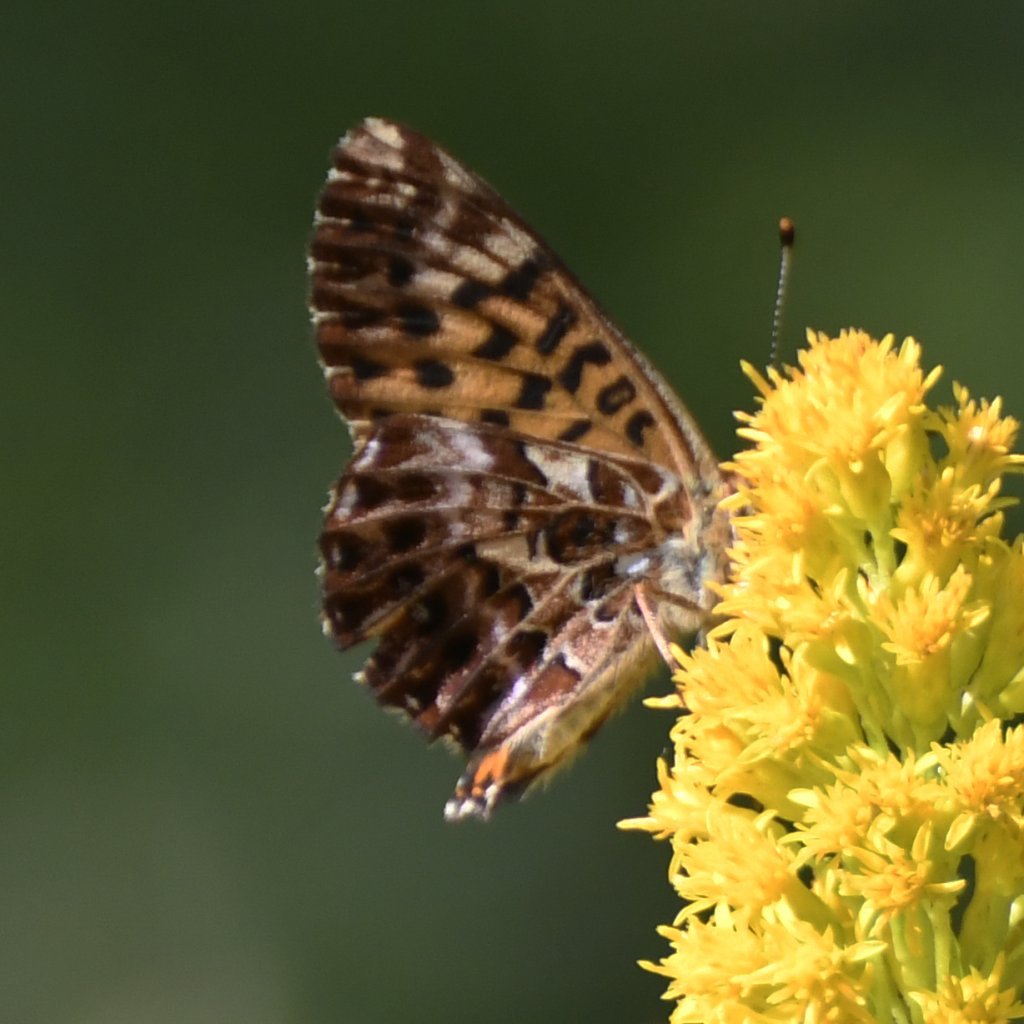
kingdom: Animalia
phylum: Arthropoda
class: Insecta
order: Lepidoptera
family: Nymphalidae
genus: Boloria
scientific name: Boloria chariclea
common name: Arctic Fritillary
